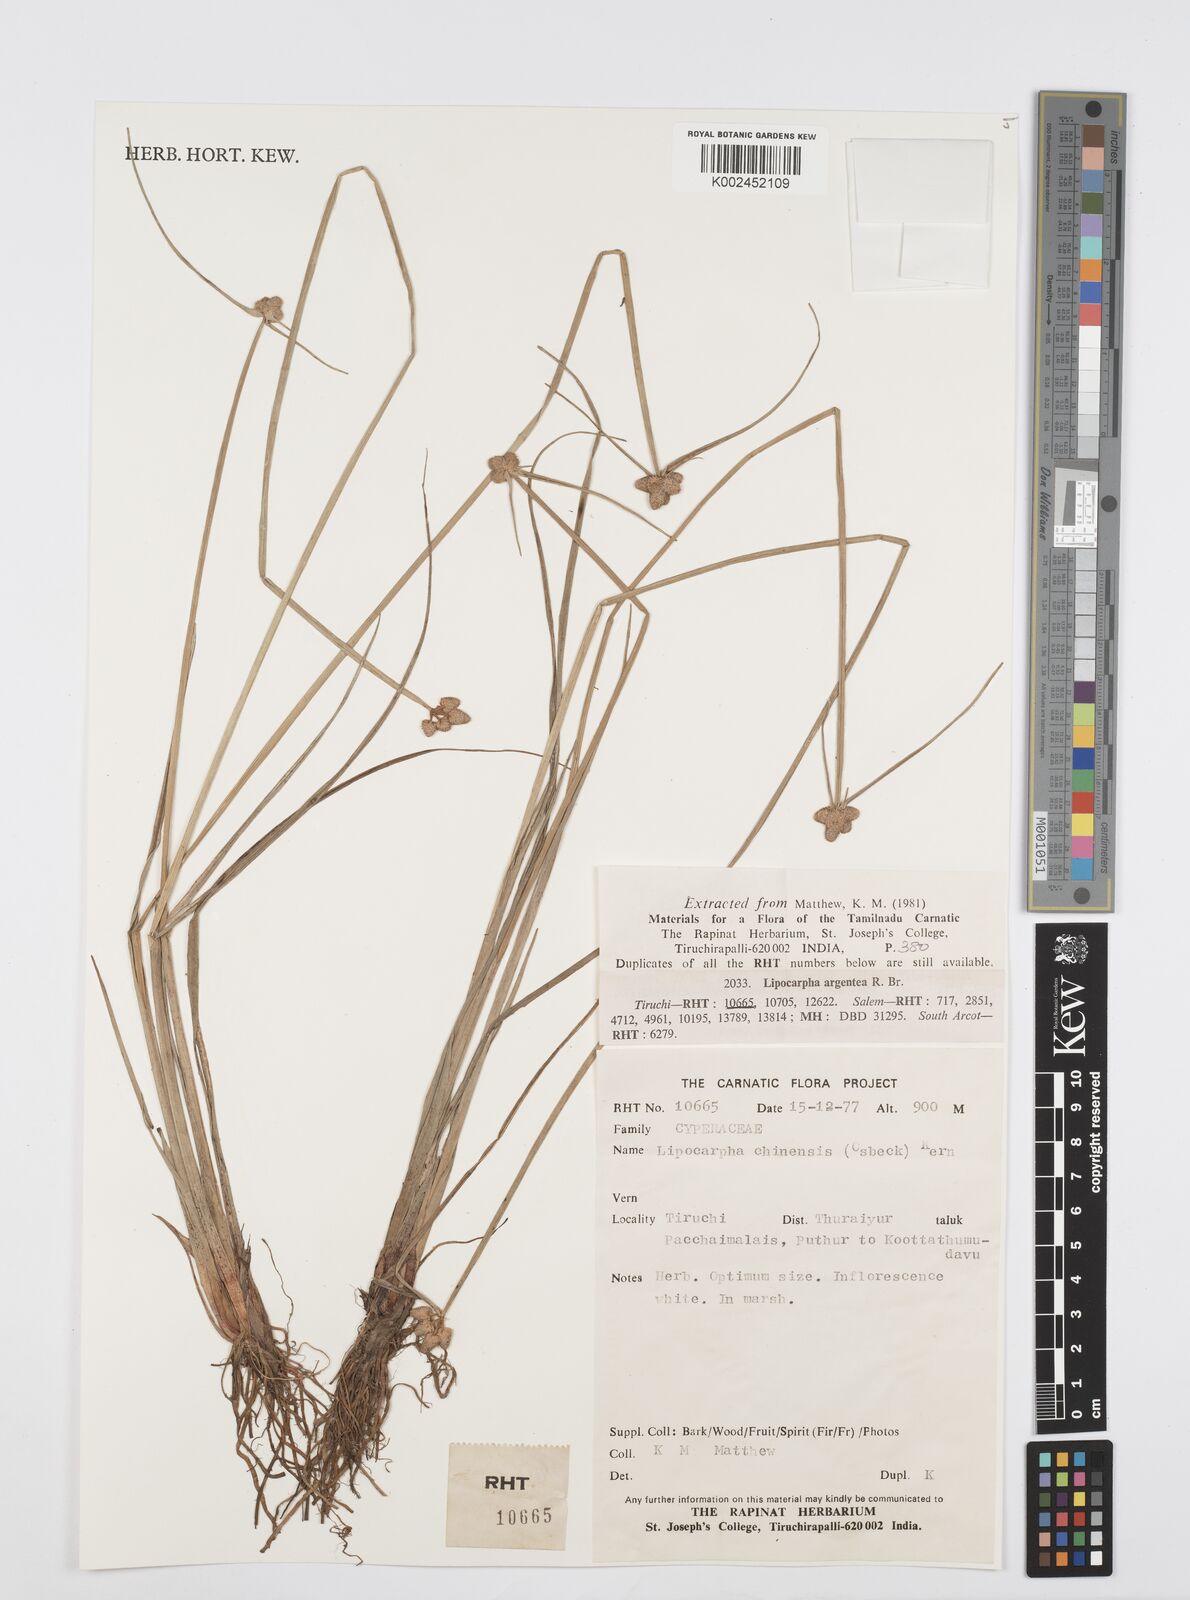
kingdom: Plantae
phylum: Tracheophyta
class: Liliopsida
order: Poales
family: Cyperaceae
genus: Cyperus
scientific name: Cyperus
